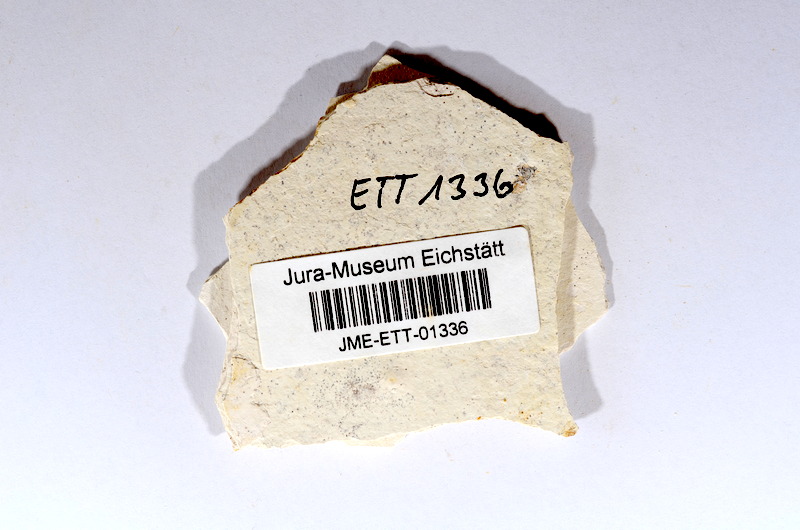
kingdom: Animalia
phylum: Chordata
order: Salmoniformes
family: Orthogonikleithridae
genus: Orthogonikleithrus
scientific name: Orthogonikleithrus hoelli
